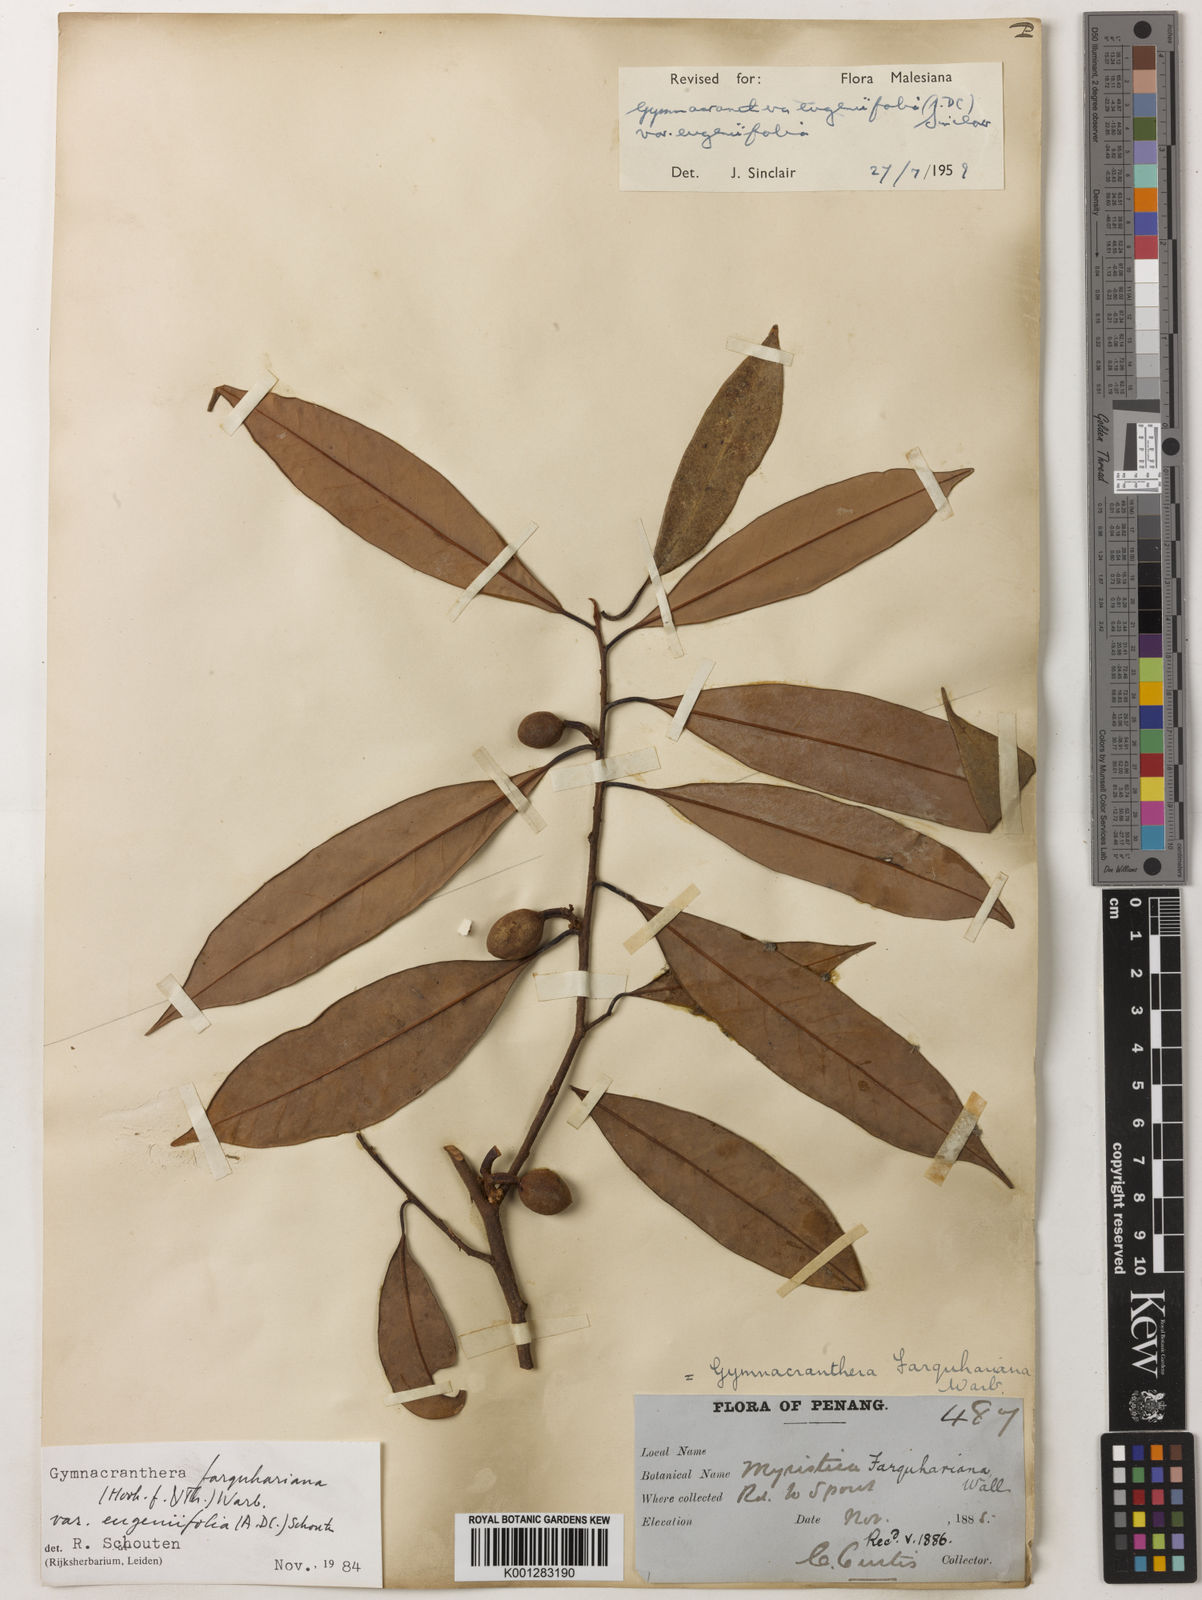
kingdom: Plantae
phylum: Tracheophyta
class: Magnoliopsida
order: Magnoliales
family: Myristicaceae
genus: Gymnacranthera
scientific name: Gymnacranthera farquhariana
